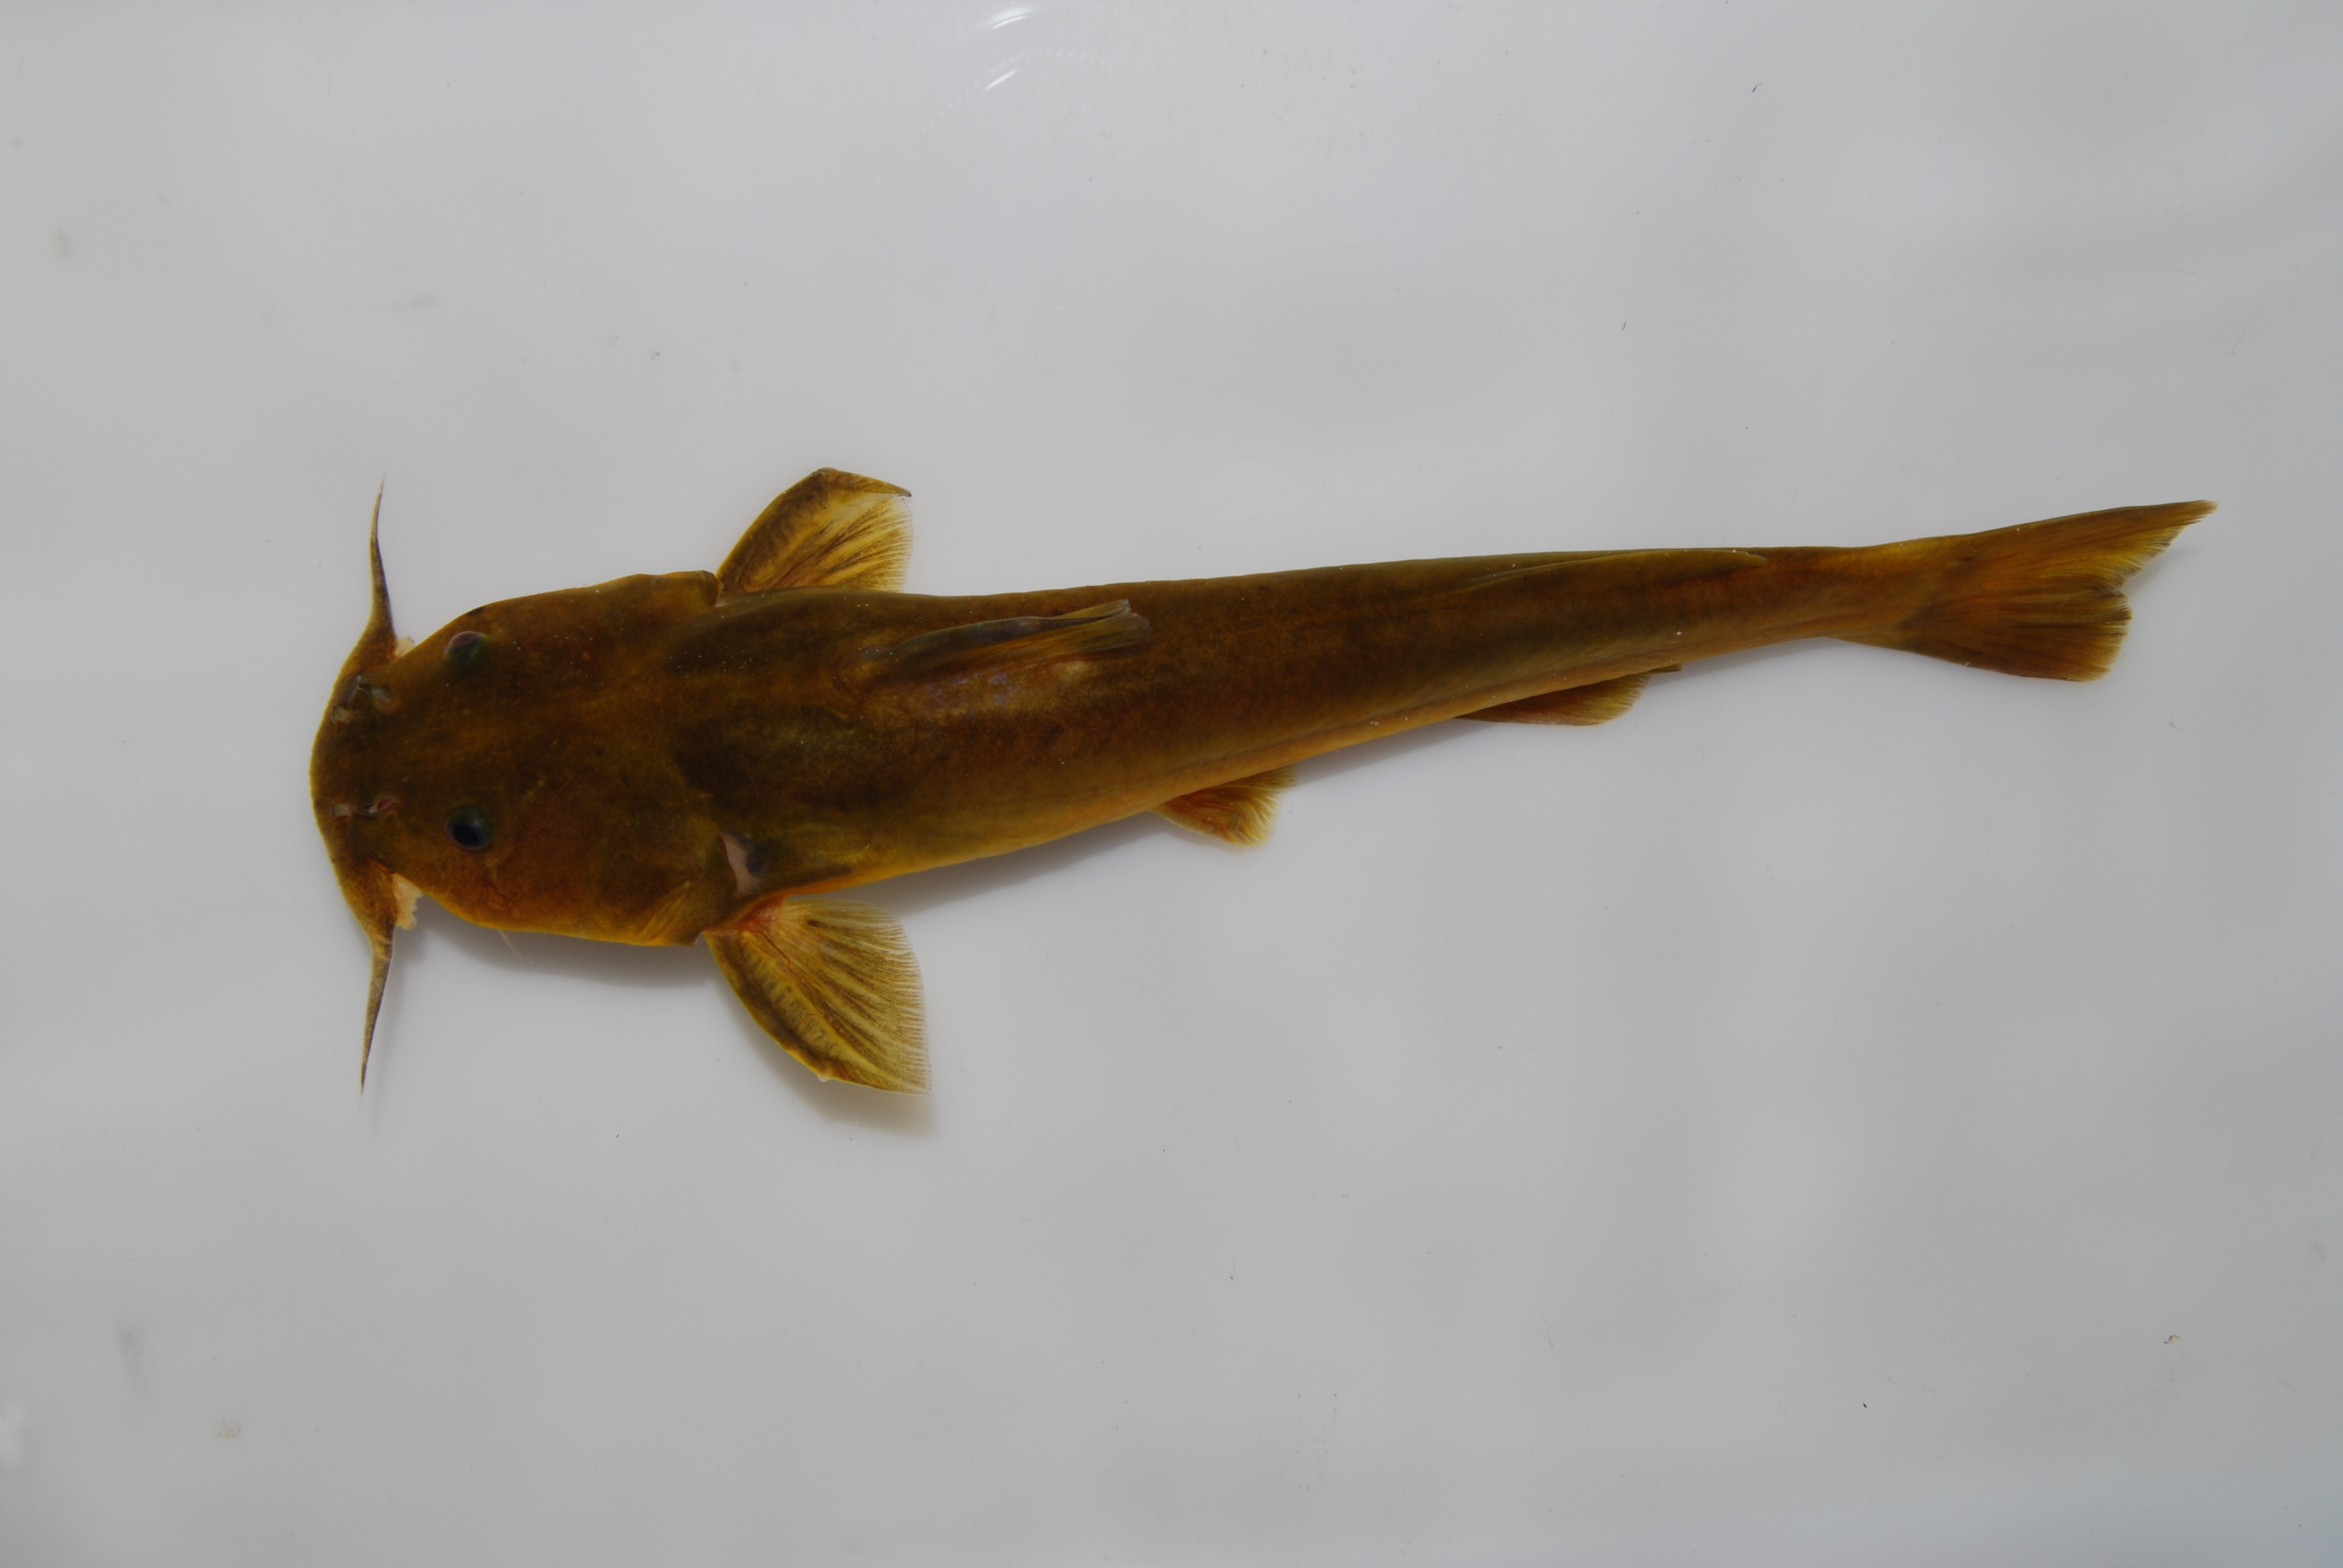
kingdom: Animalia
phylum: Chordata
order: Siluriformes
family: Austroglanididae
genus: Austroglanis
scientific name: Austroglanis gilli
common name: Clanwilliam rock-catfish
